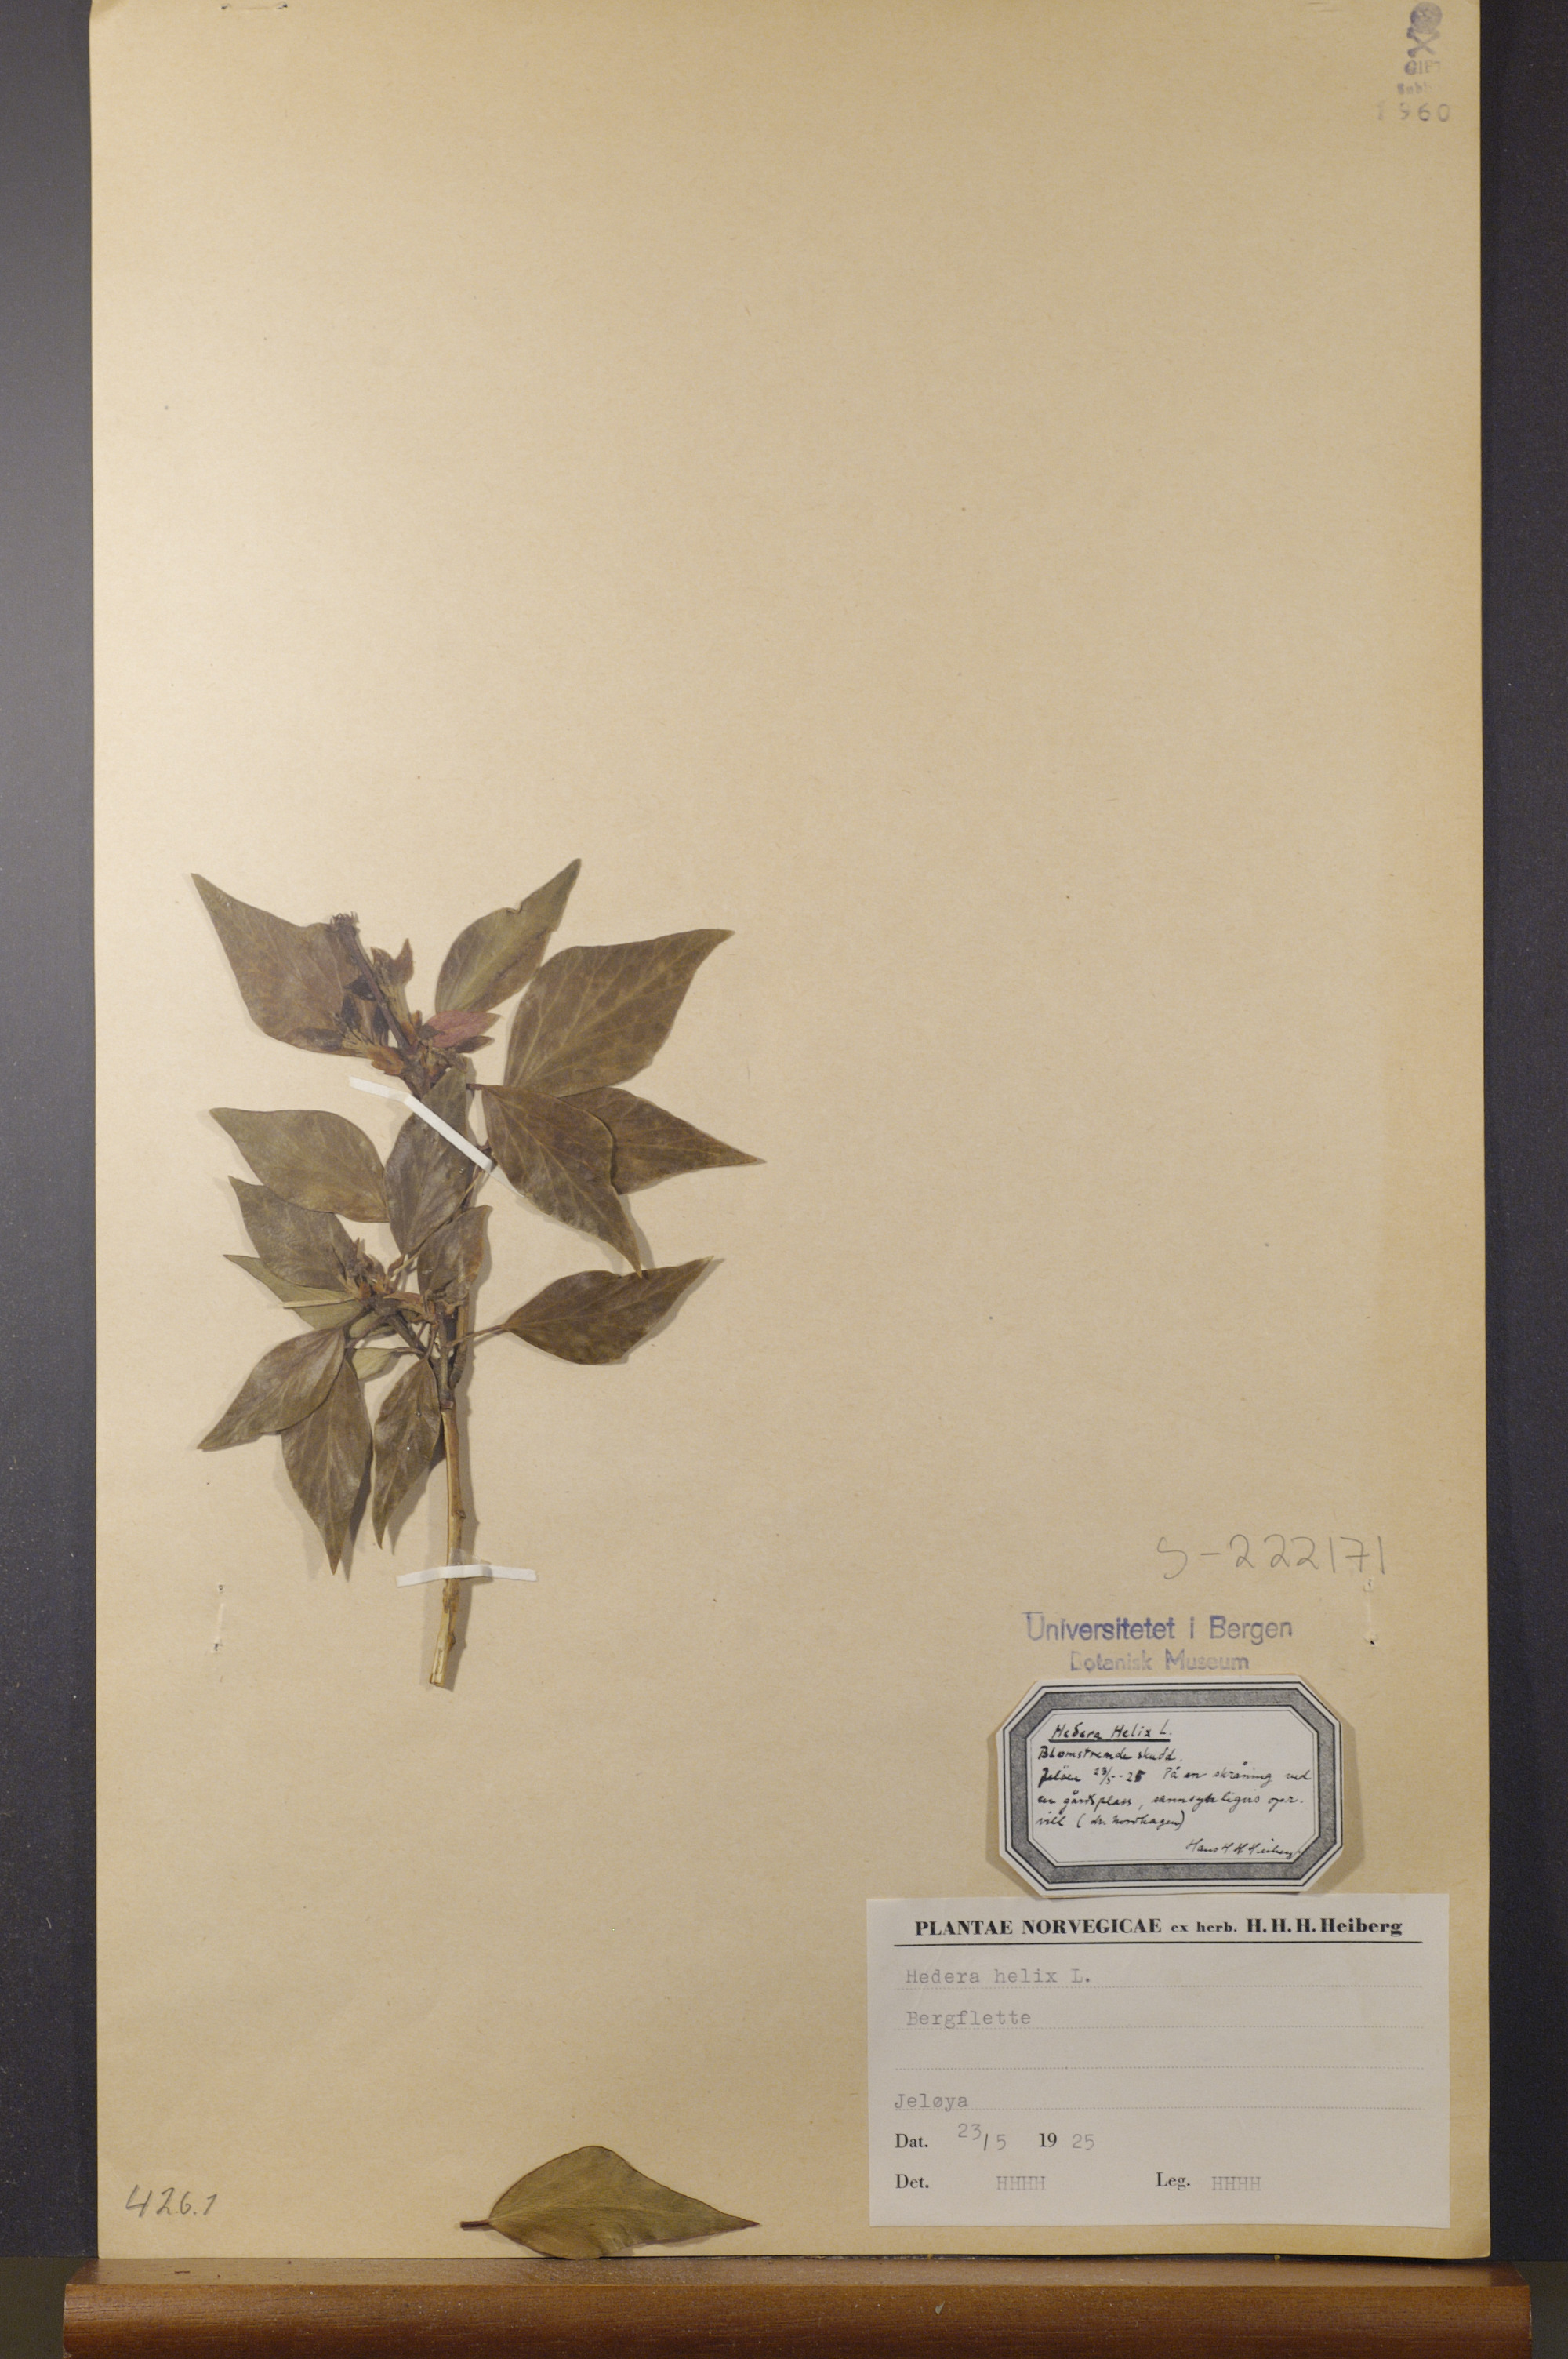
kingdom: Plantae
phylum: Tracheophyta
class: Magnoliopsida
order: Apiales
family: Araliaceae
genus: Hedera
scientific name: Hedera helix
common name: Ivy
